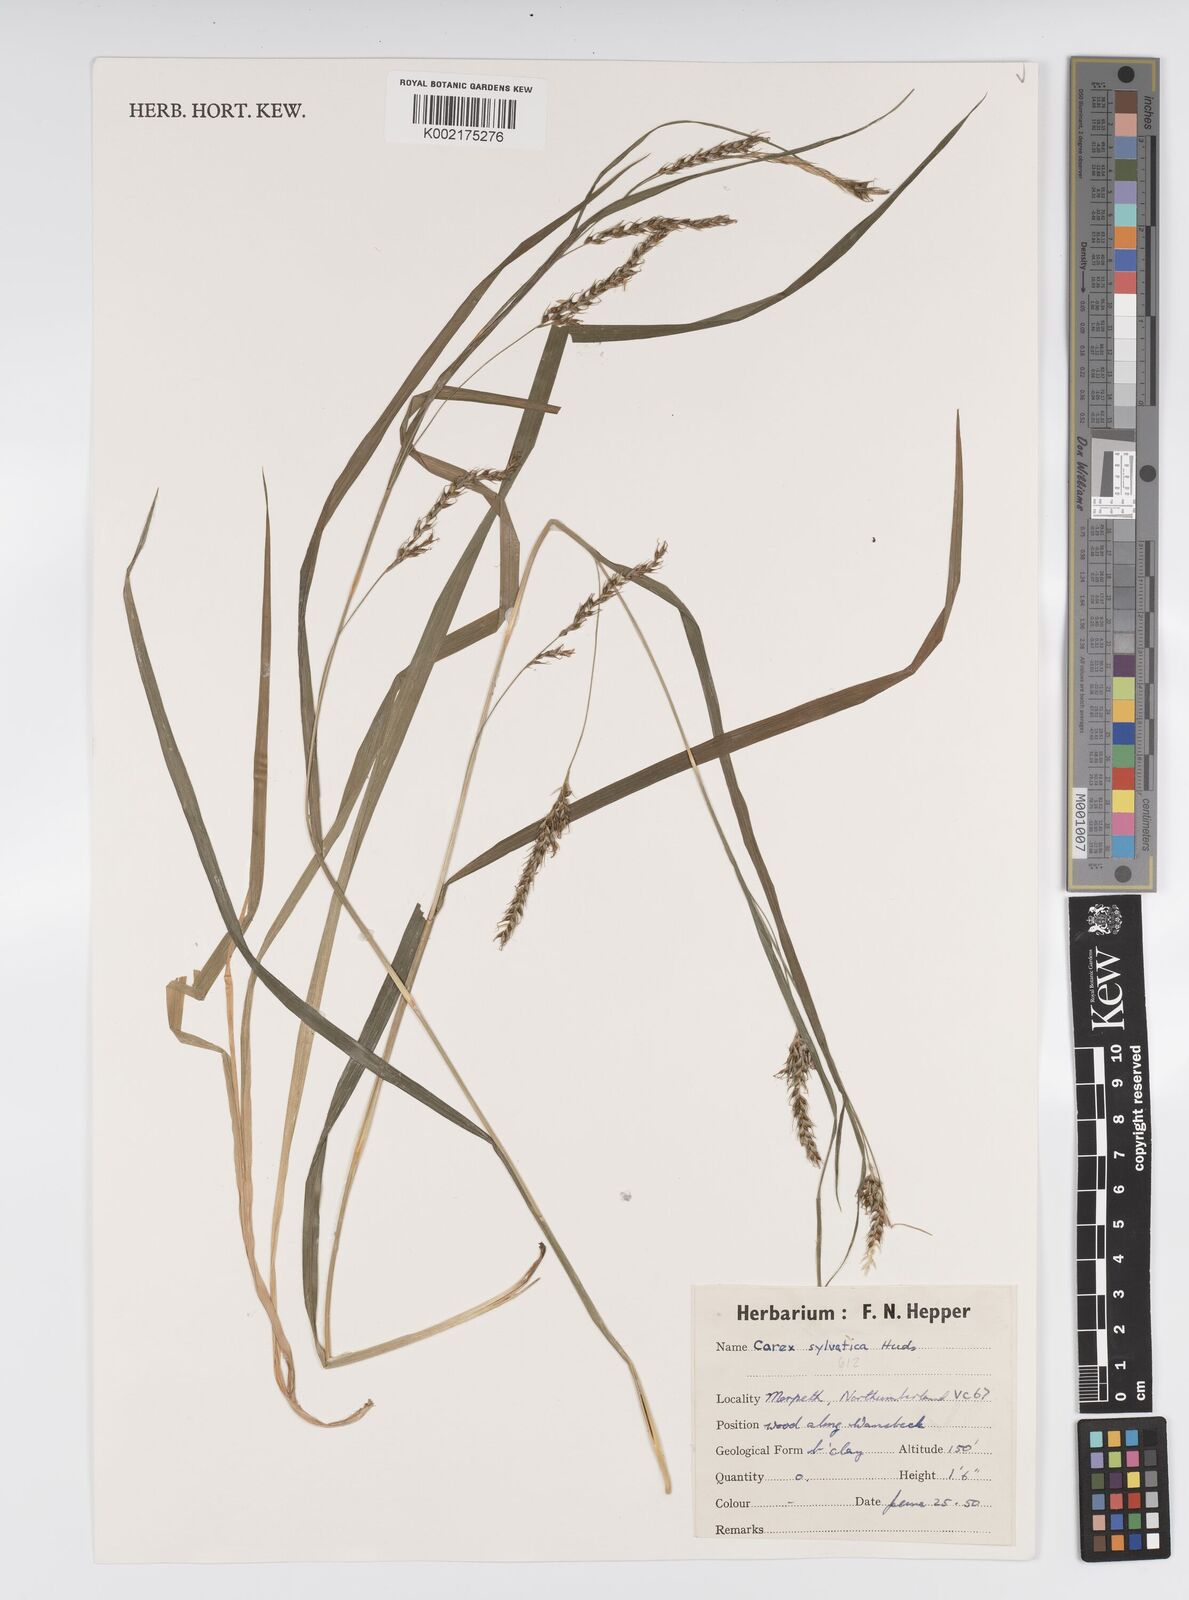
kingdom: Plantae
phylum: Tracheophyta
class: Liliopsida
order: Poales
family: Cyperaceae
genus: Carex
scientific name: Carex sylvatica
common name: Wood-sedge
